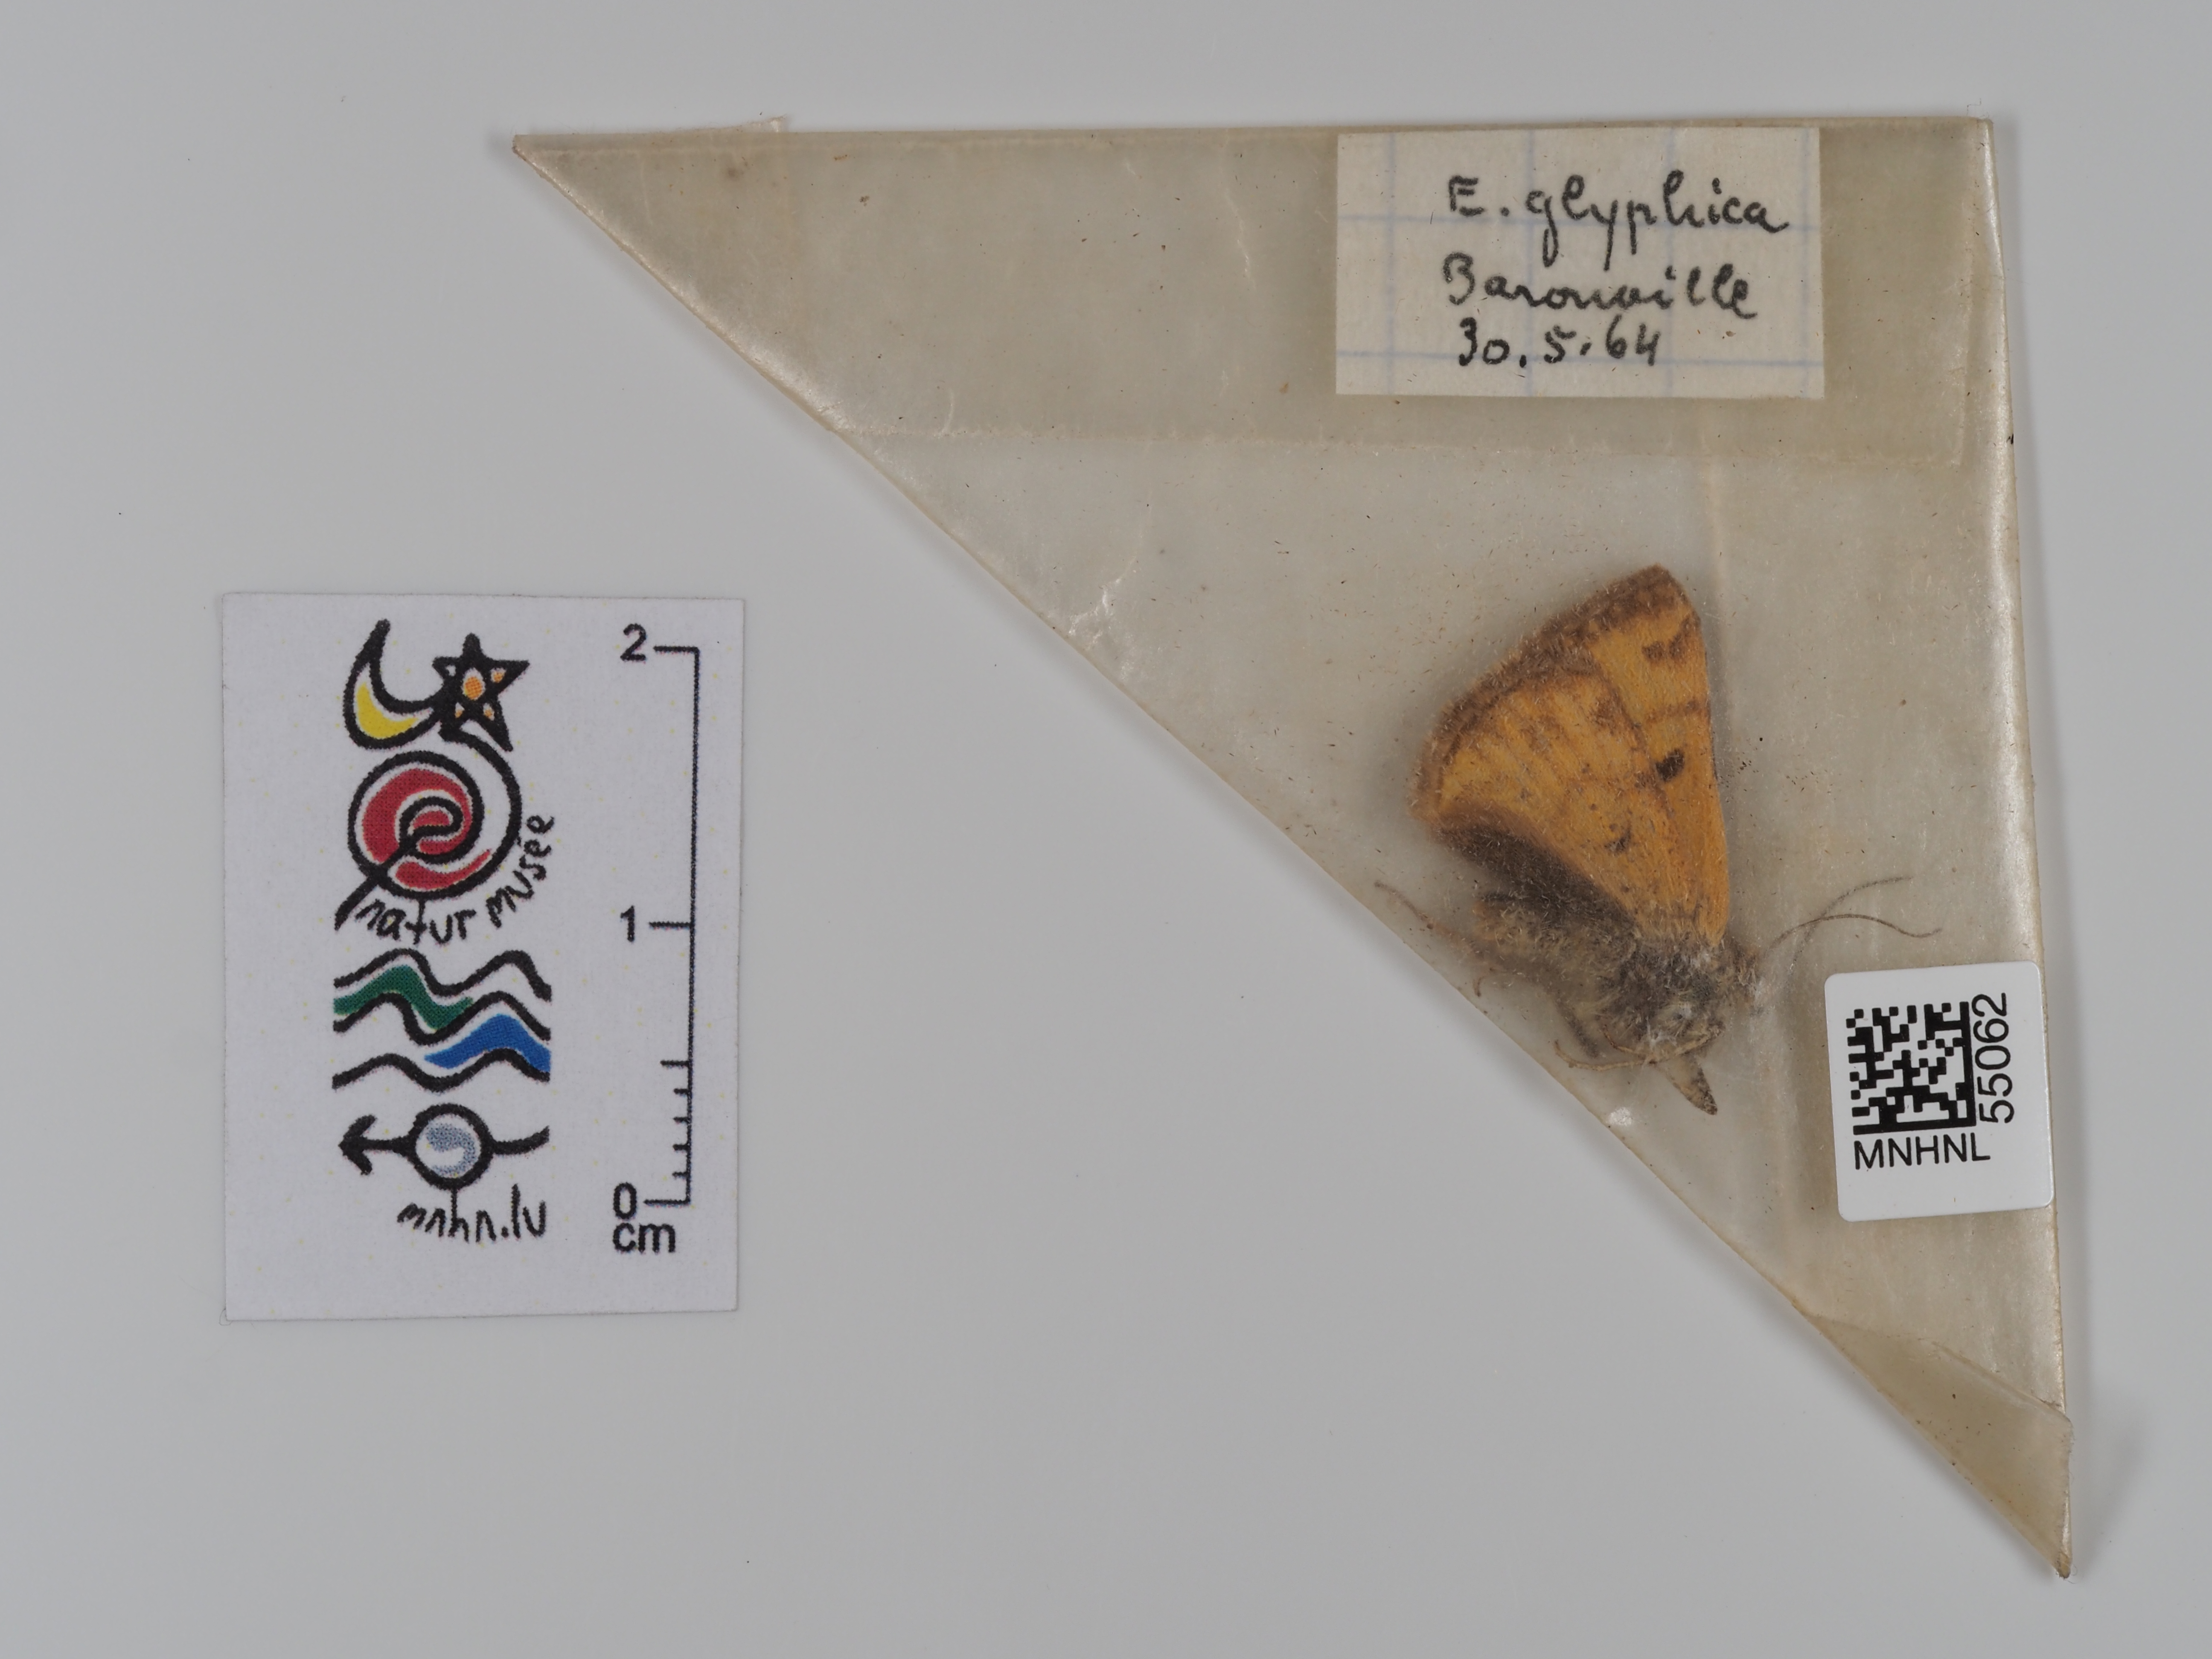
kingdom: Animalia
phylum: Arthropoda
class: Insecta
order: Lepidoptera
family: Erebidae
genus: Euclidia
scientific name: Euclidia glyphica
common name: Burnet companion
